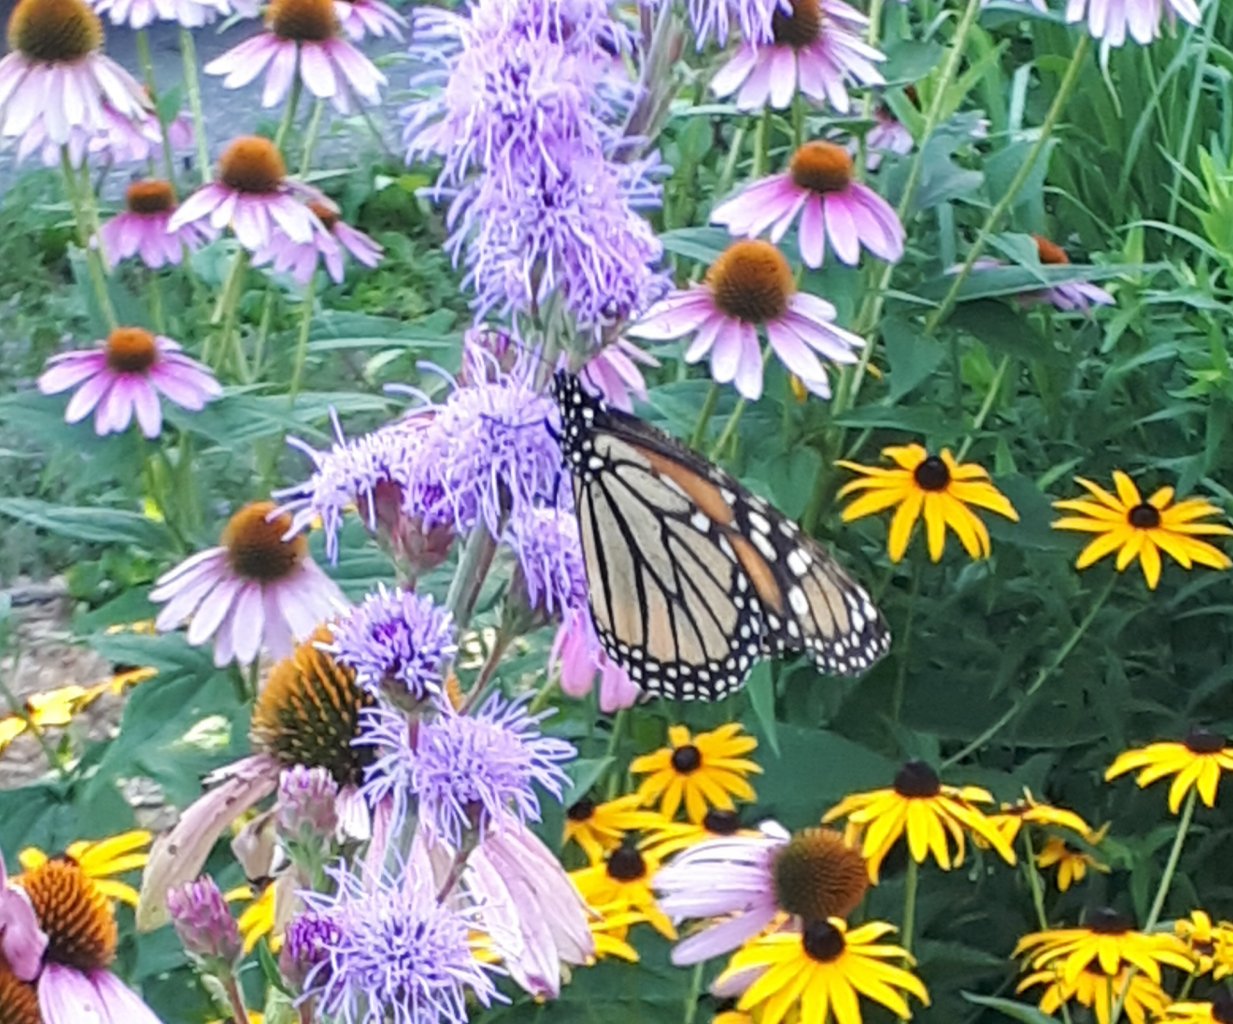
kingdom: Animalia
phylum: Arthropoda
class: Insecta
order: Lepidoptera
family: Nymphalidae
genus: Danaus
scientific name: Danaus plexippus
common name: Monarch
